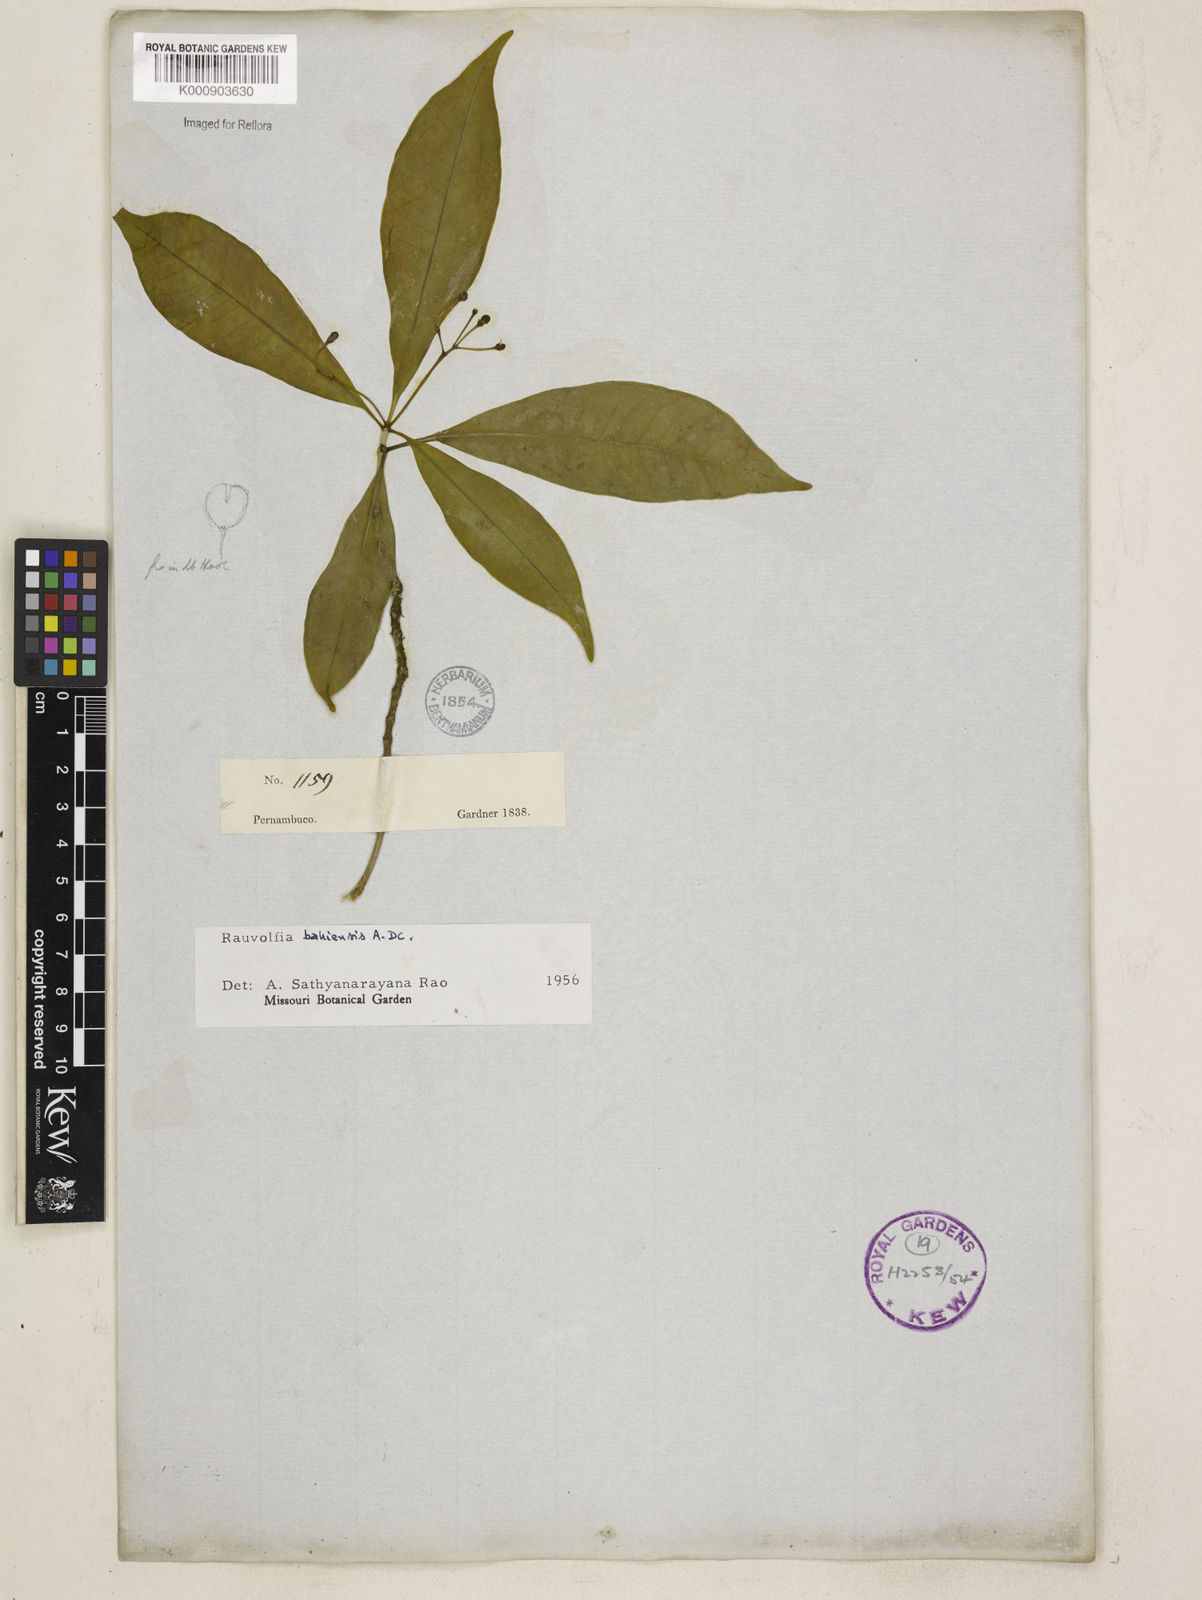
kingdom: Plantae
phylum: Tracheophyta
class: Magnoliopsida
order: Gentianales
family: Apocynaceae
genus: Rauvolfia
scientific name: Rauvolfia bahiensis
